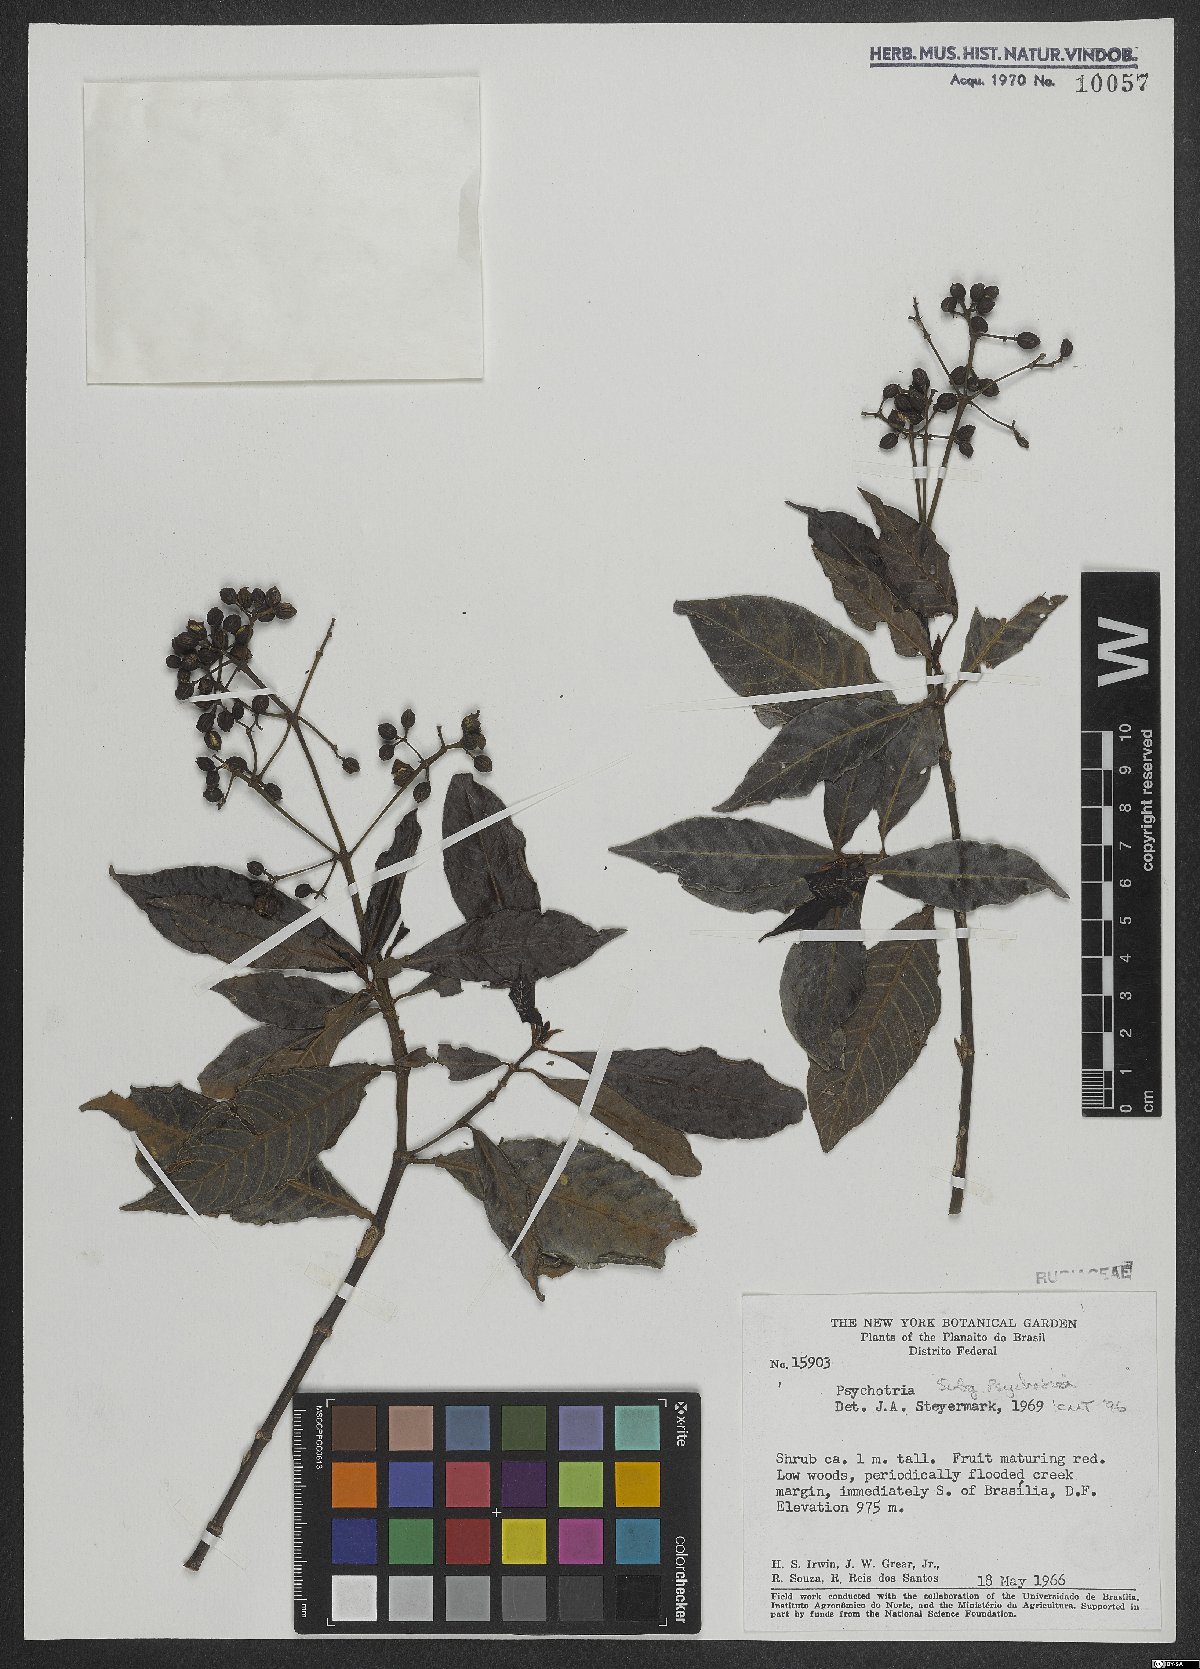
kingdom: Plantae
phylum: Tracheophyta
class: Magnoliopsida
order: Gentianales
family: Rubiaceae
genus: Psychotria
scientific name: Psychotria
